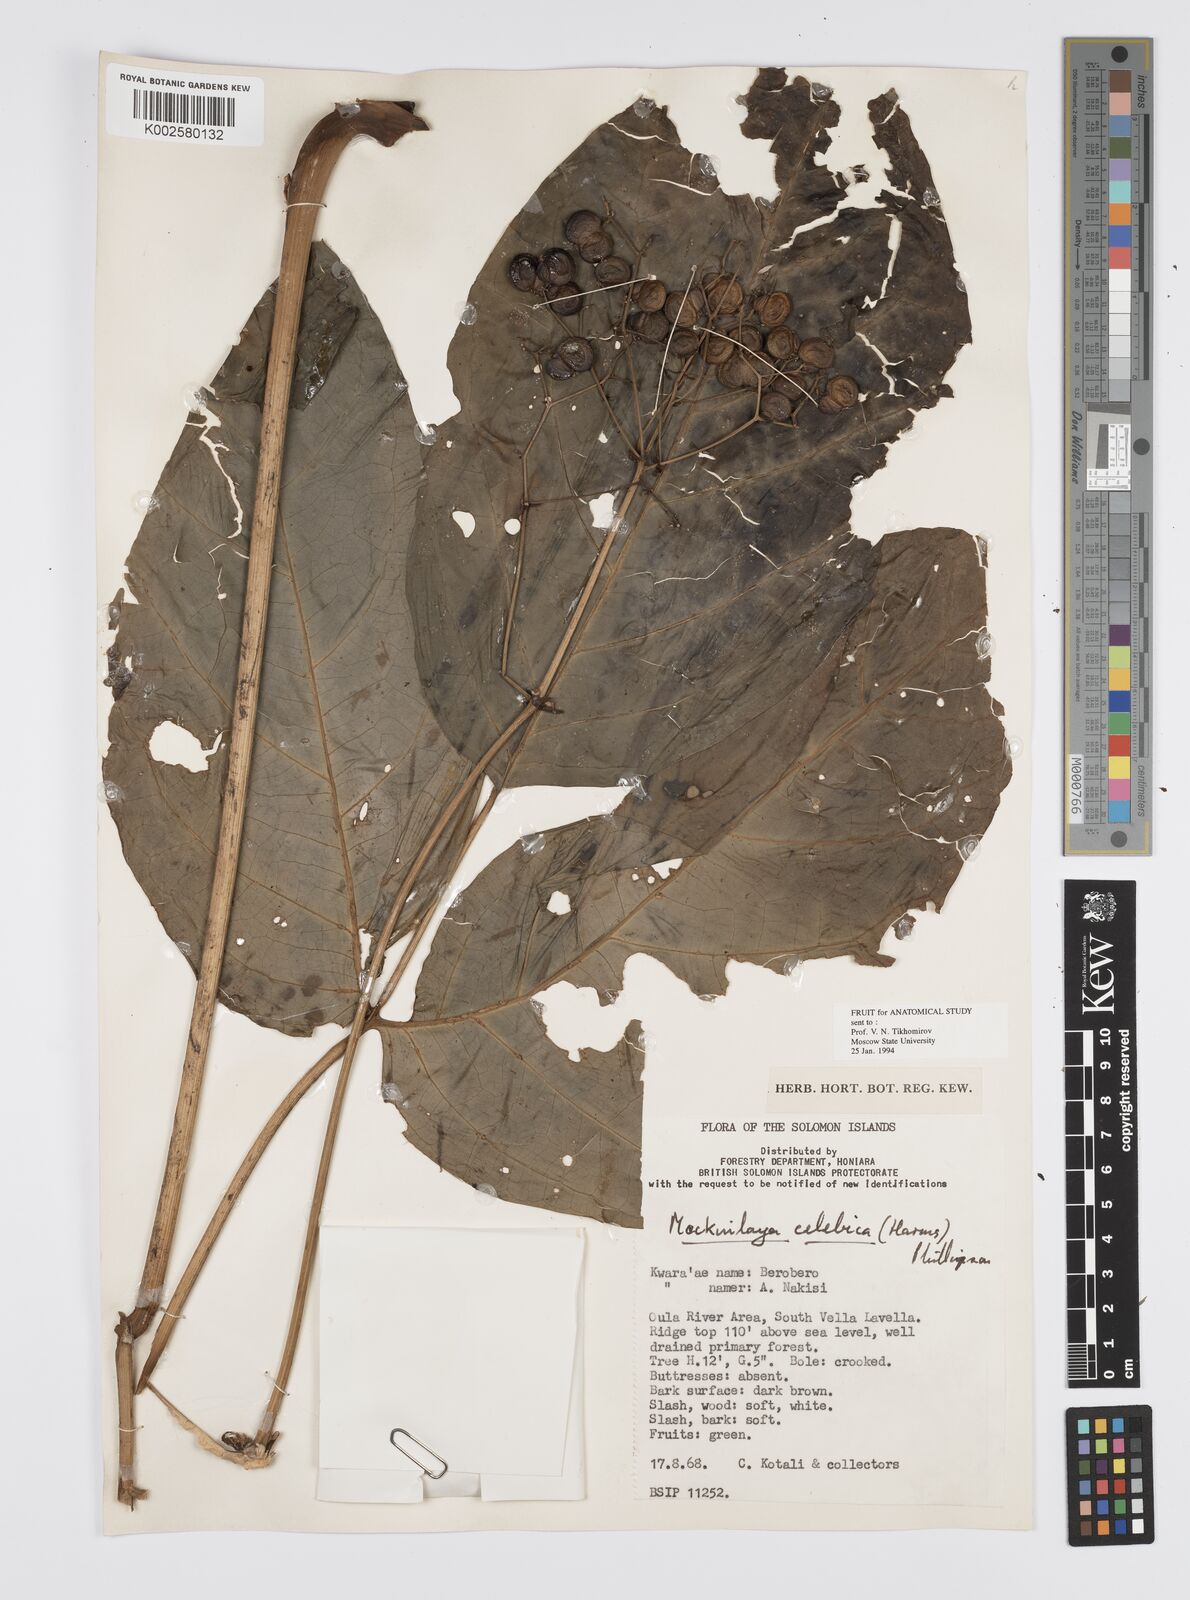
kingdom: Plantae
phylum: Tracheophyta
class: Magnoliopsida
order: Apiales
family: Apiaceae
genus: Mackinlaya
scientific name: Mackinlaya celebica
